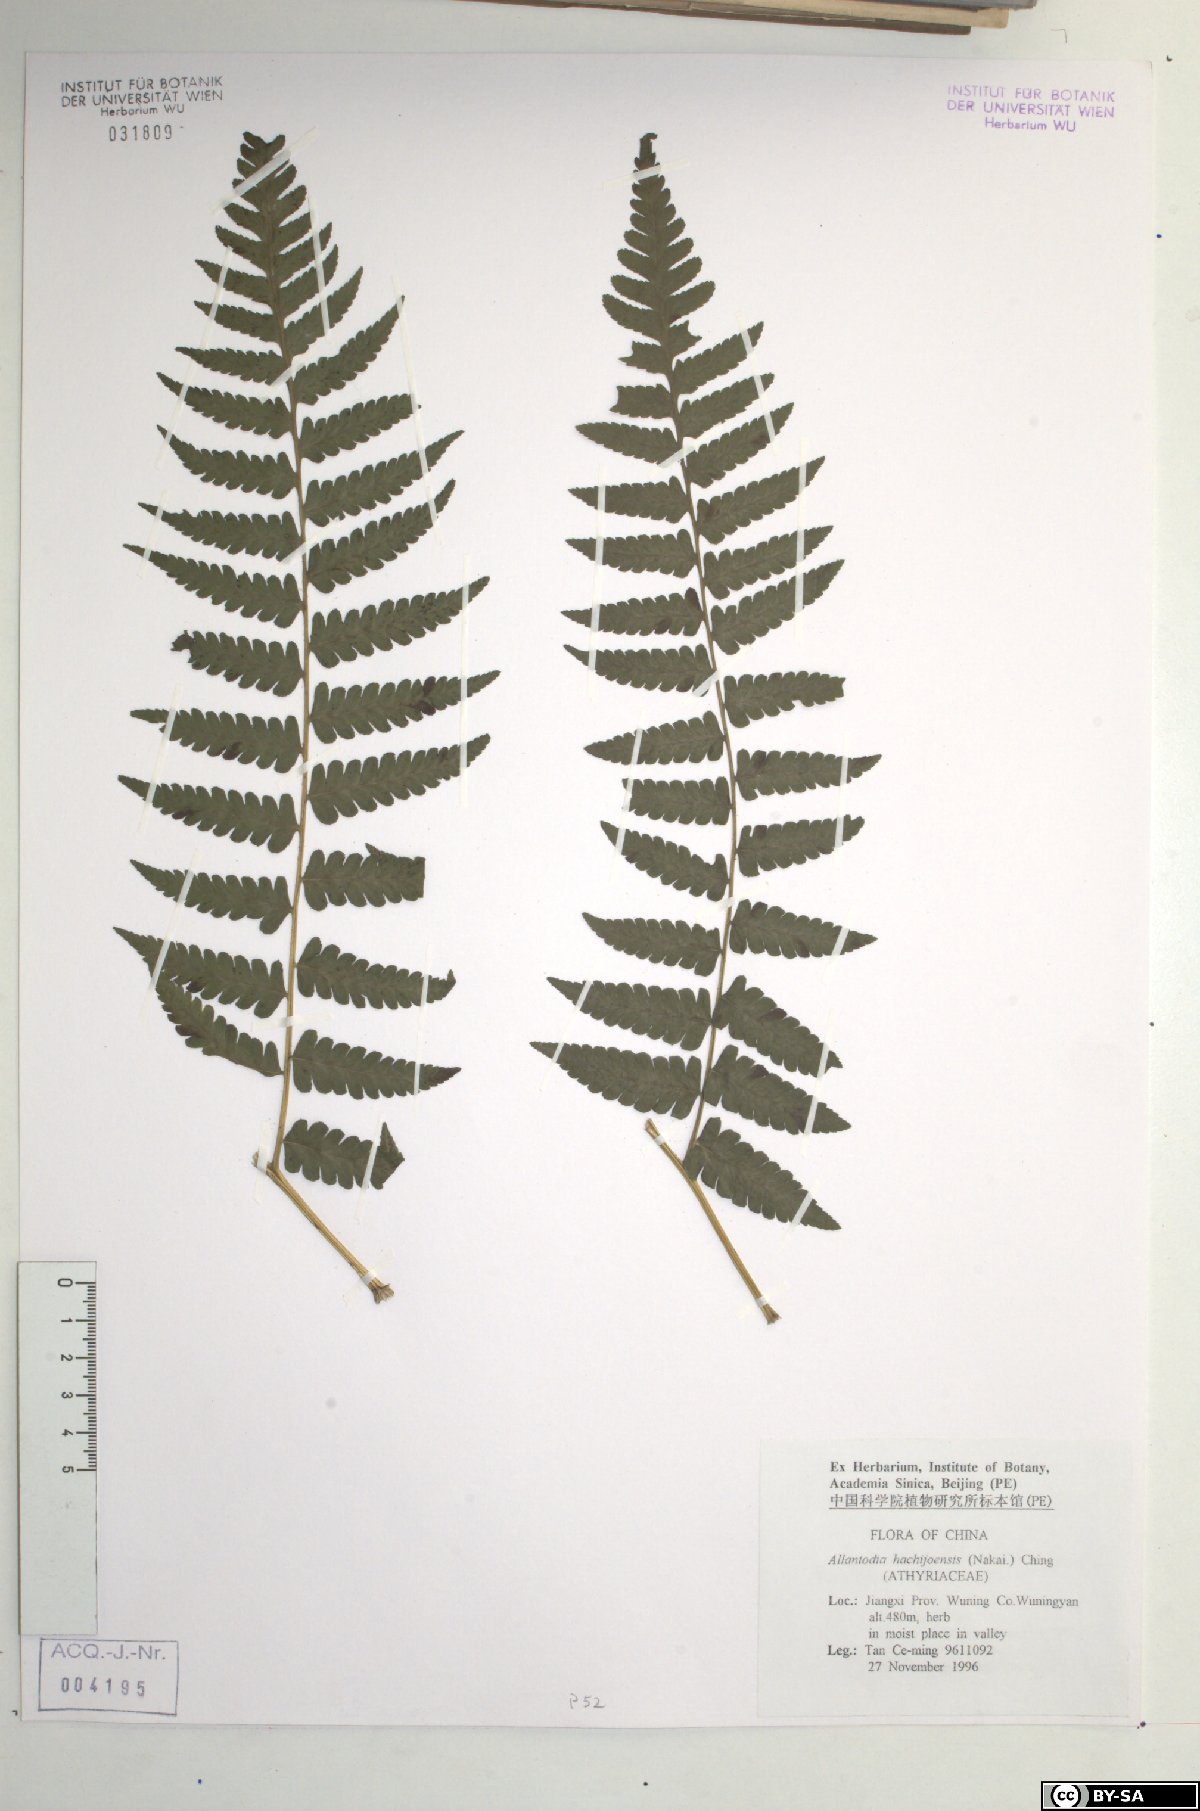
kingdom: Plantae
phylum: Tracheophyta
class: Polypodiopsida
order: Polypodiales
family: Athyriaceae
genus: Diplazium
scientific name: Diplazium hachijoense
